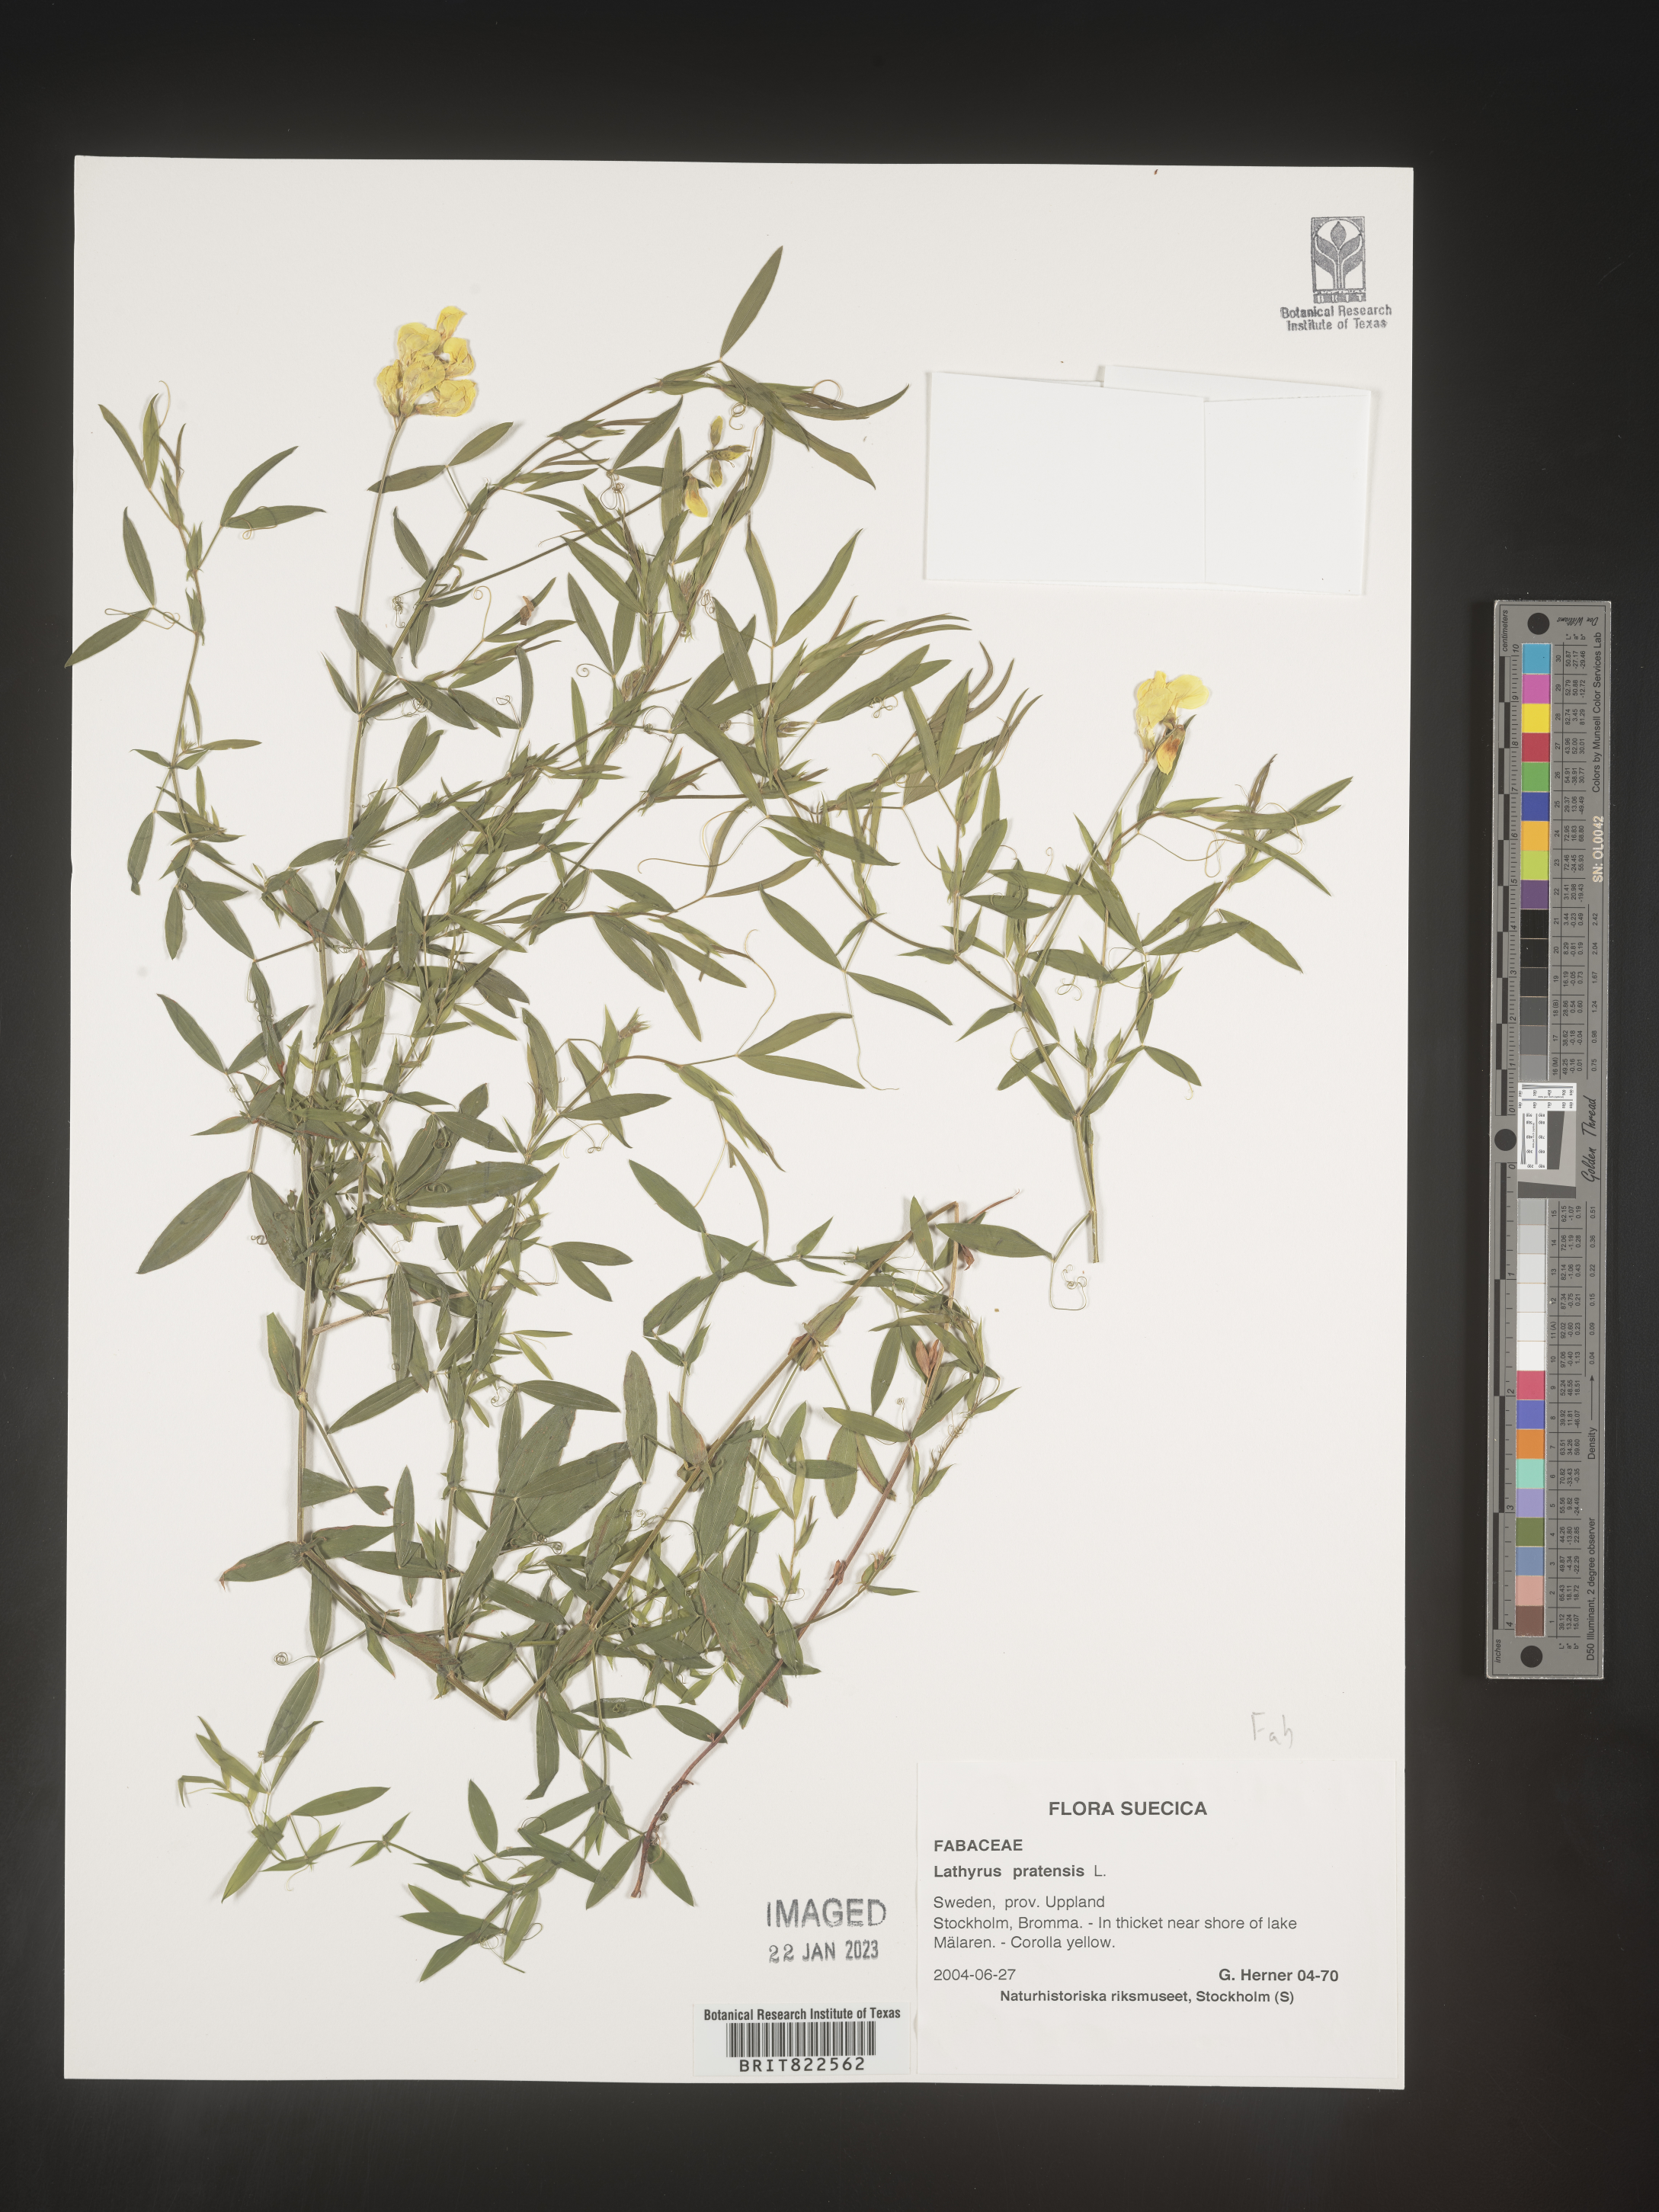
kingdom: Plantae
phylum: Tracheophyta
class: Magnoliopsida
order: Fabales
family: Fabaceae
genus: Lathyrus
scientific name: Lathyrus
